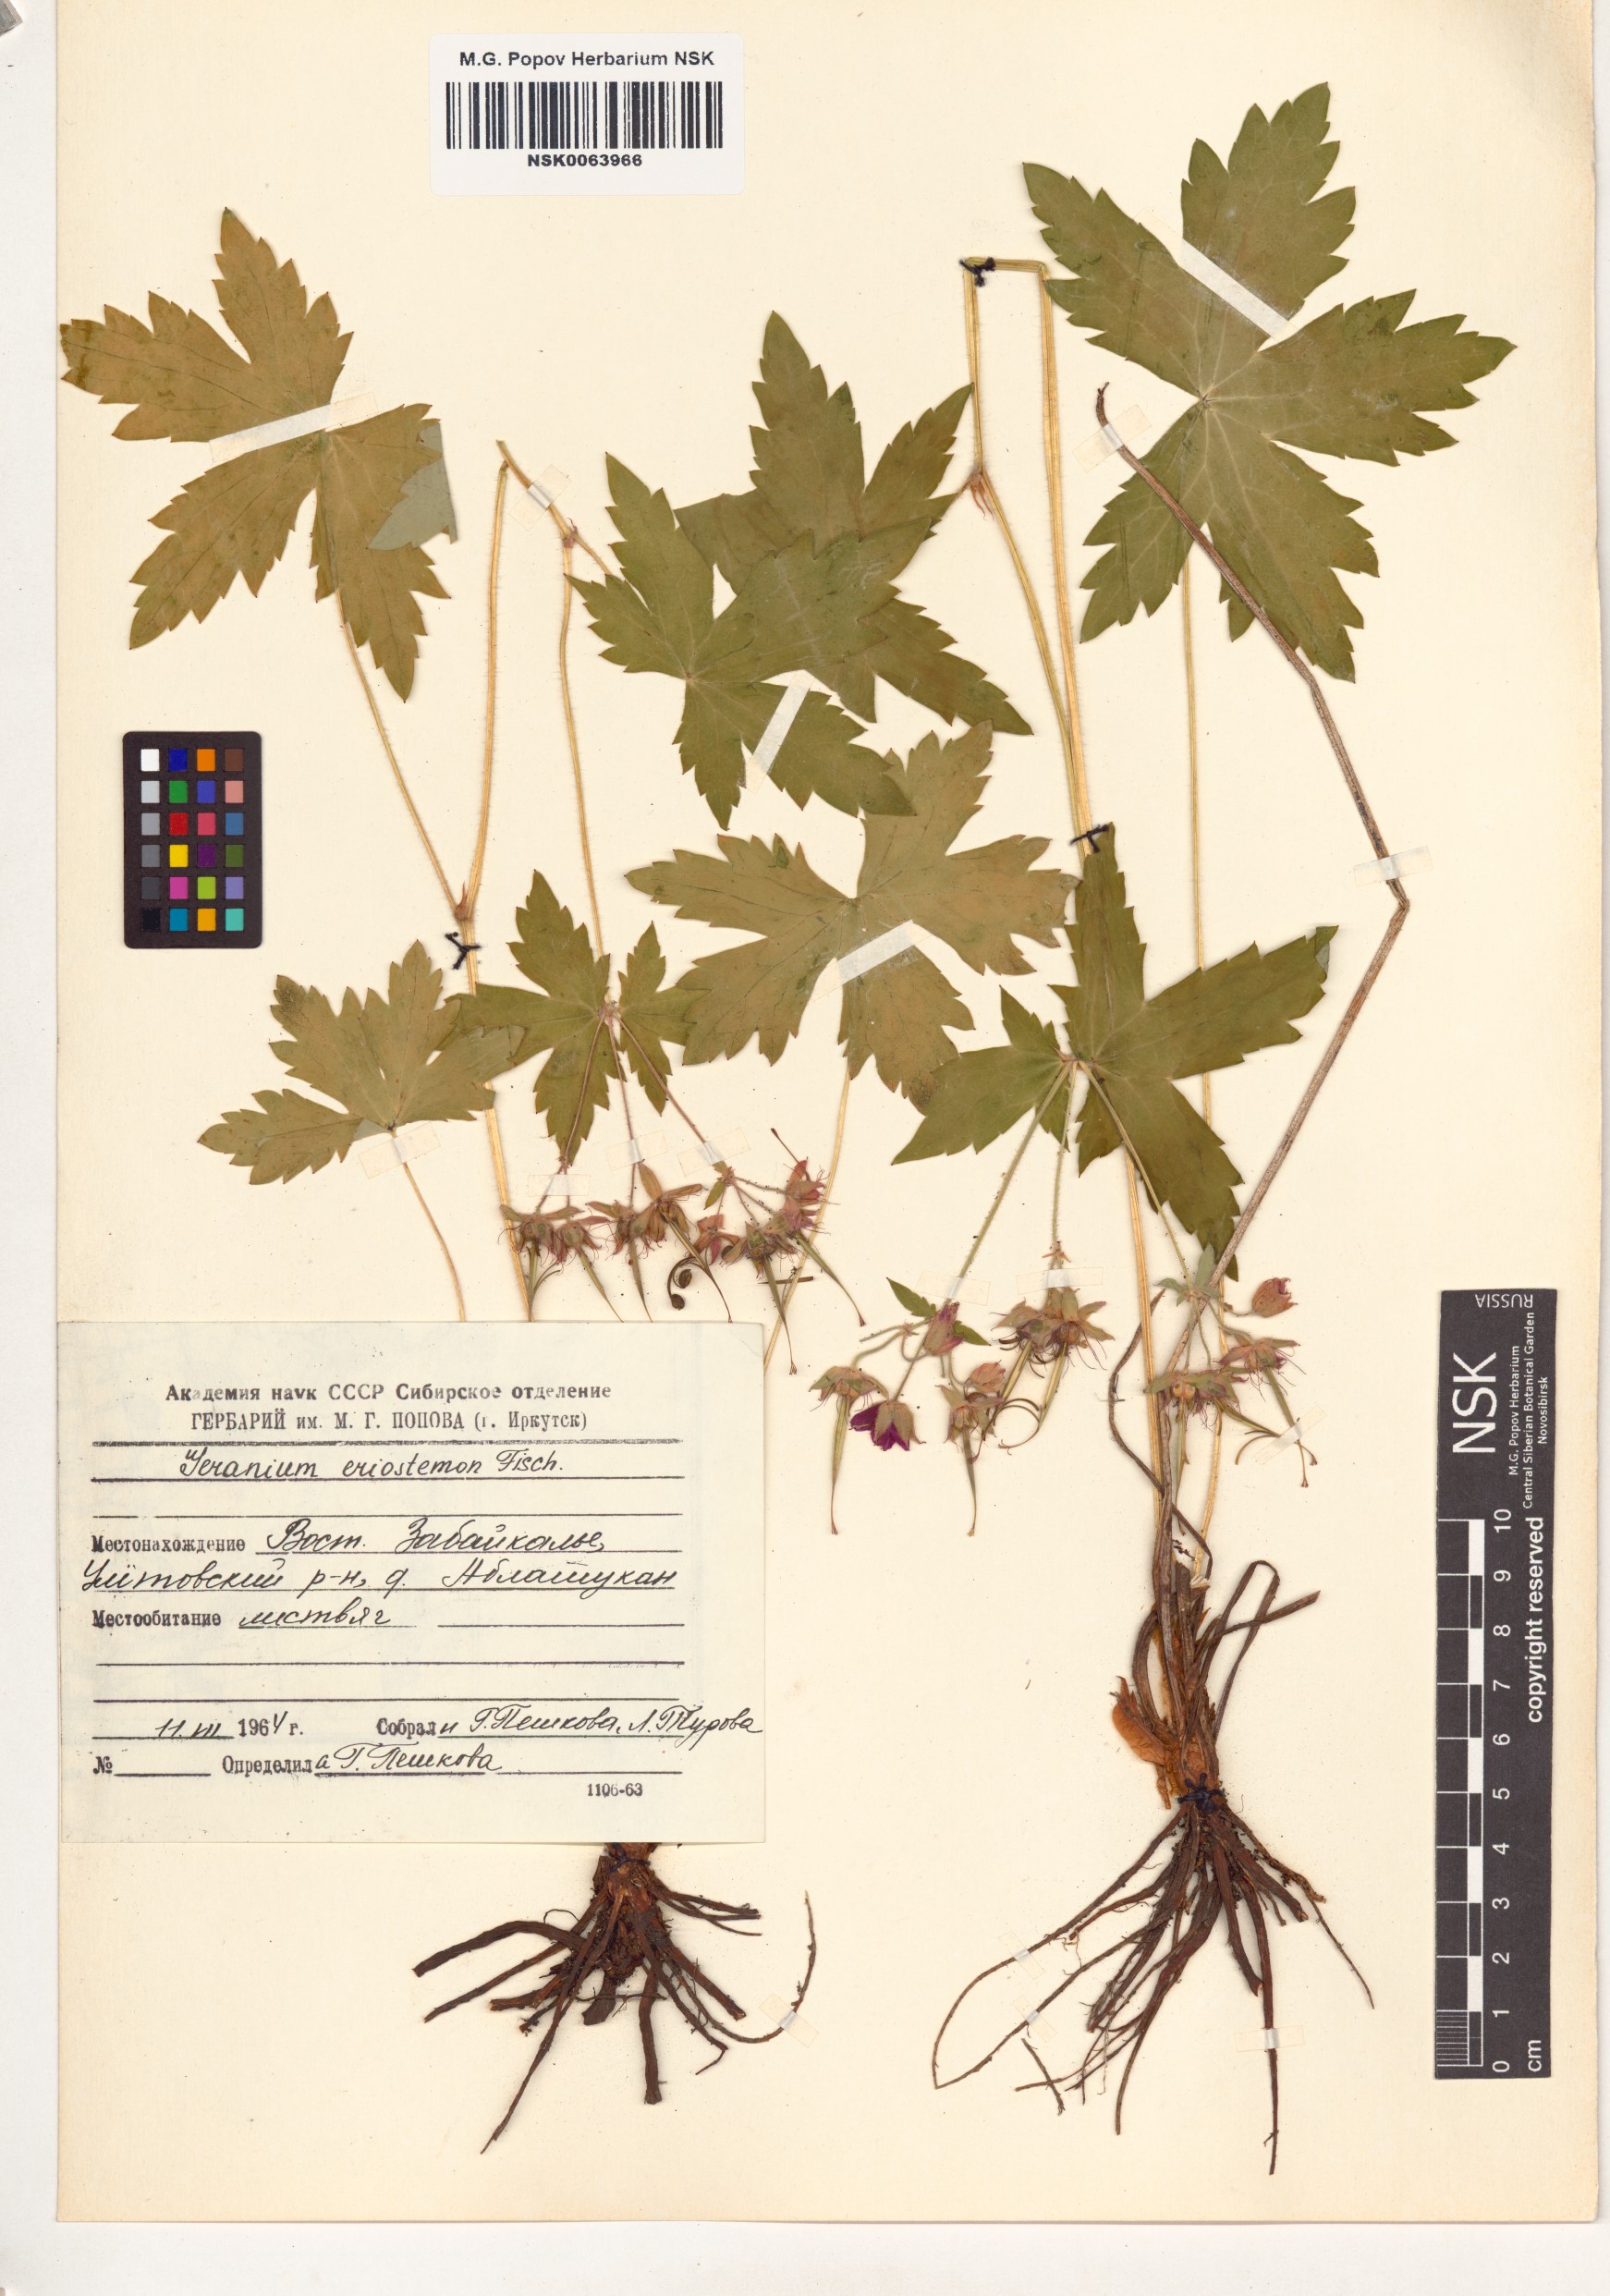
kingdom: Plantae
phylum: Tracheophyta
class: Magnoliopsida
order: Geraniales
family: Geraniaceae
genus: Geranium
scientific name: Geranium platyanthum
